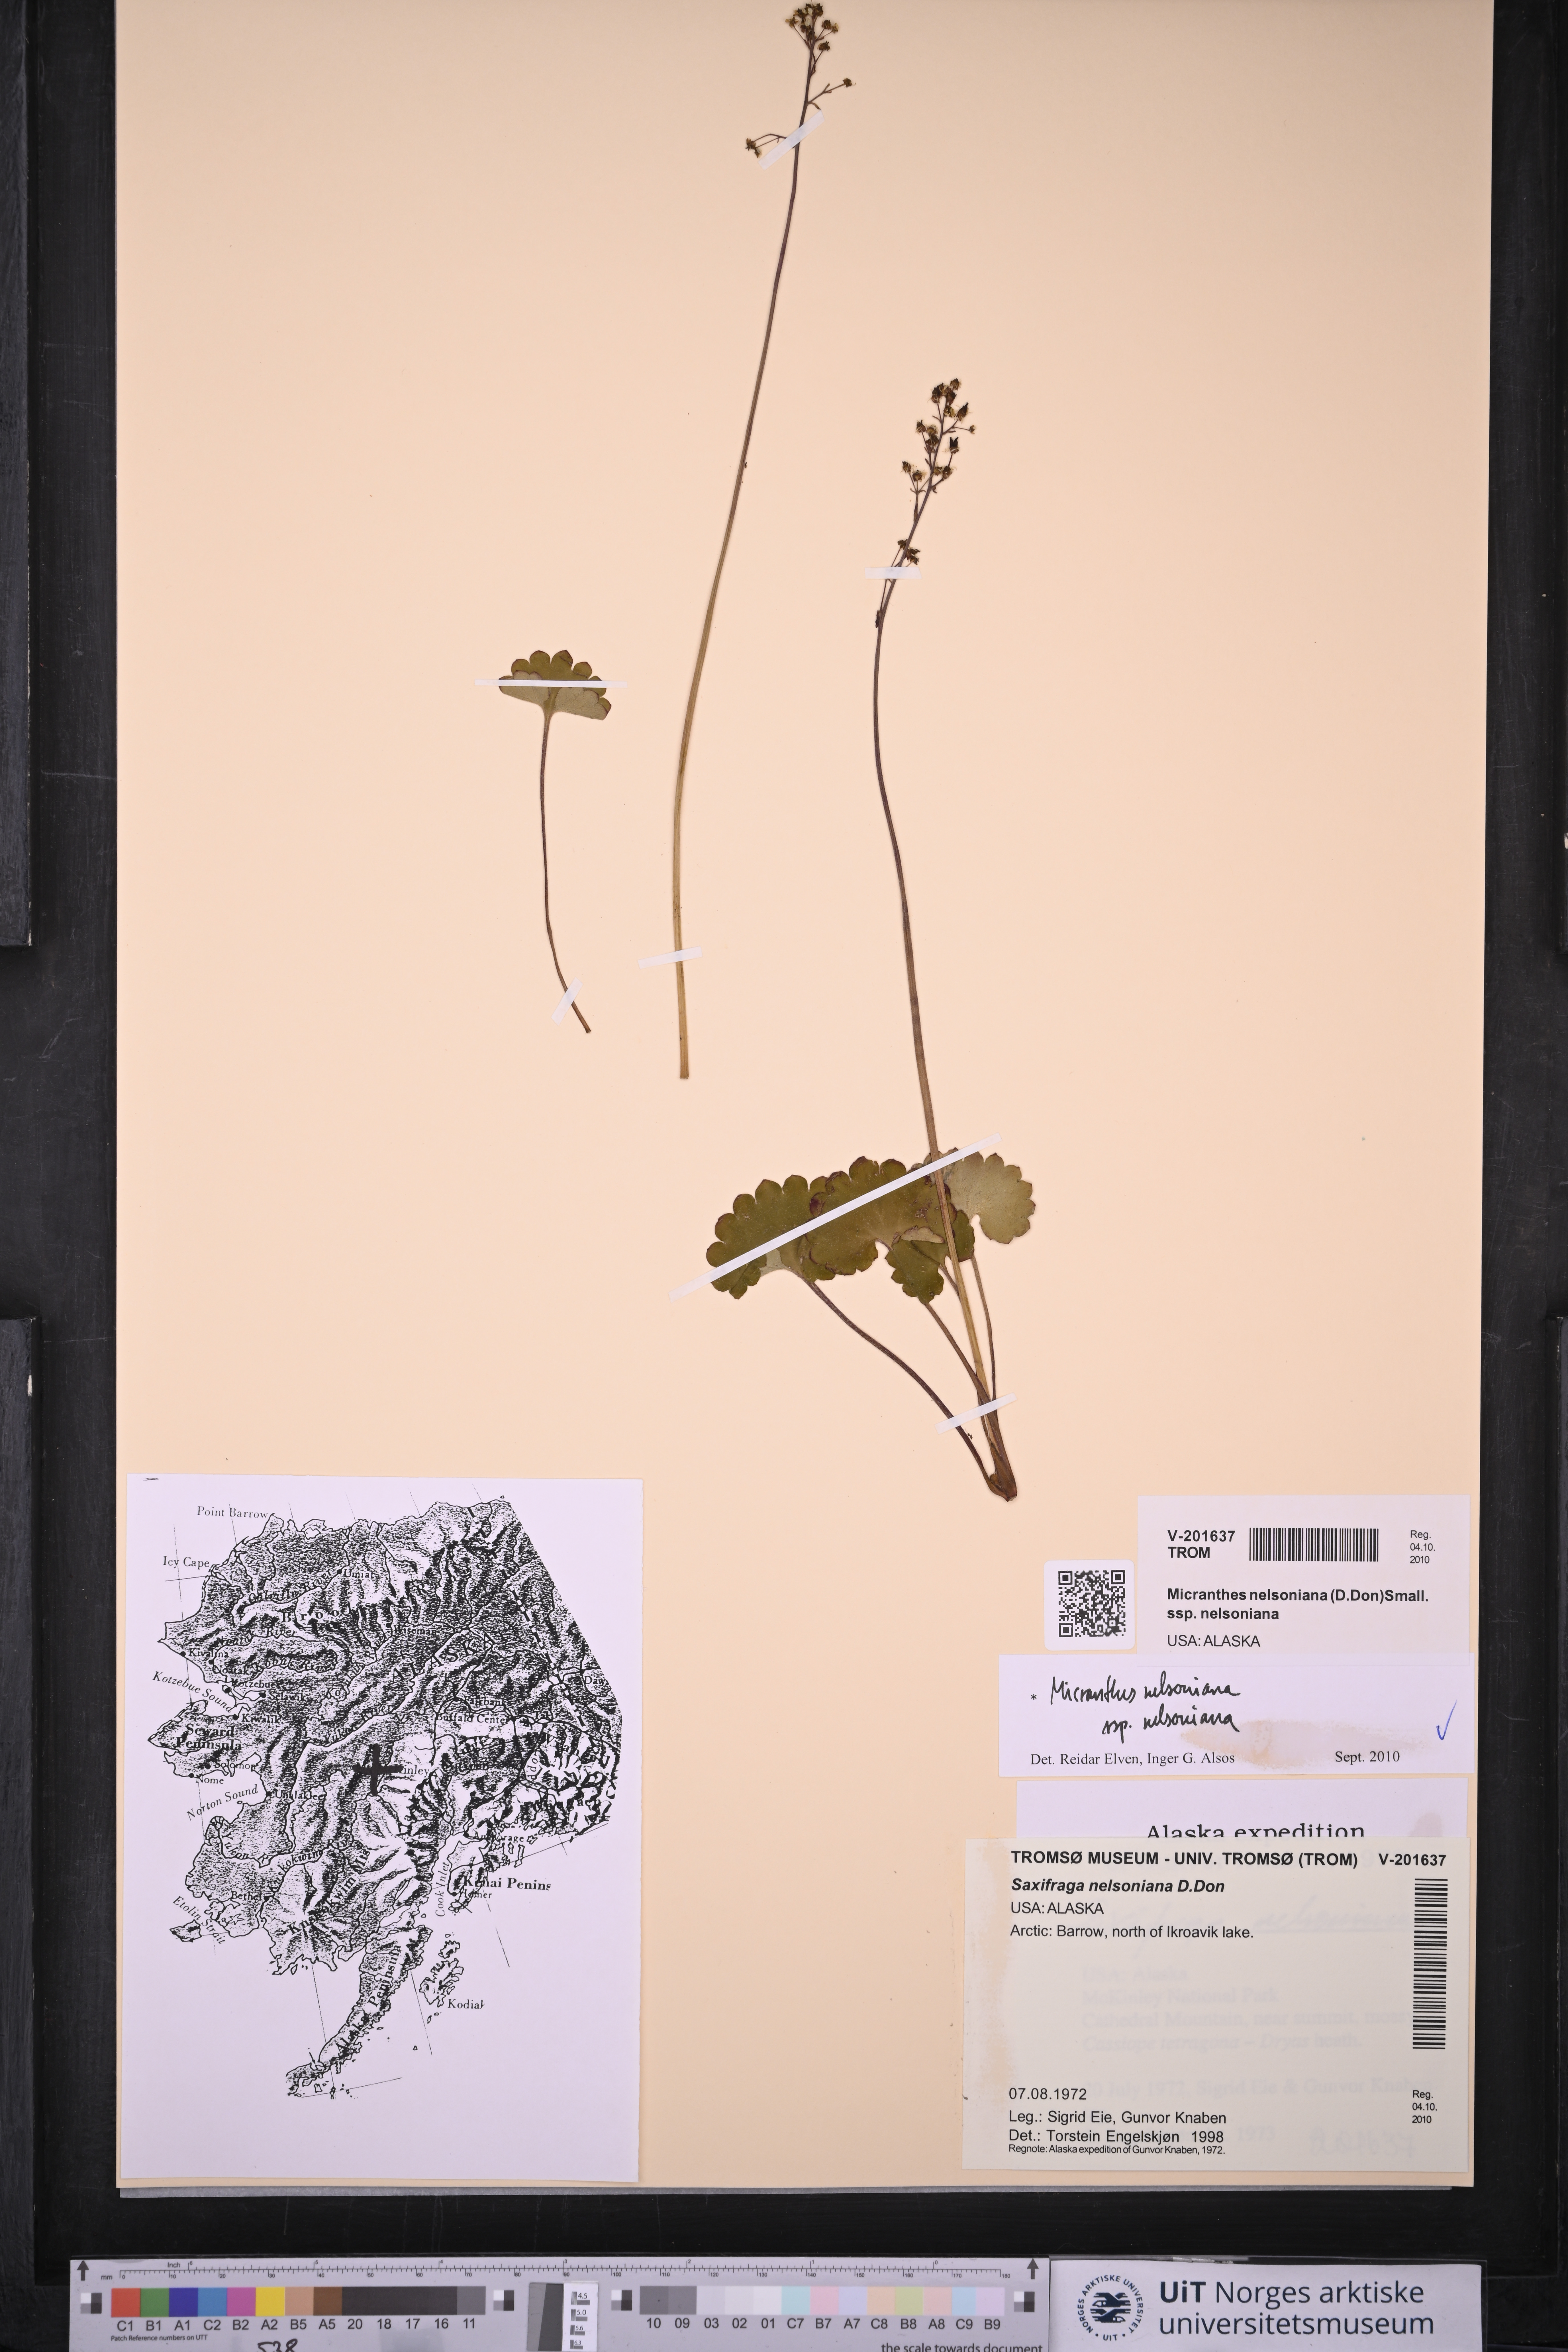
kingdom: Plantae
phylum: Tracheophyta
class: Magnoliopsida
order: Saxifragales
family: Saxifragaceae
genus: Micranthes
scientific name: Micranthes nelsoniana
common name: Nelson's saxifrage
